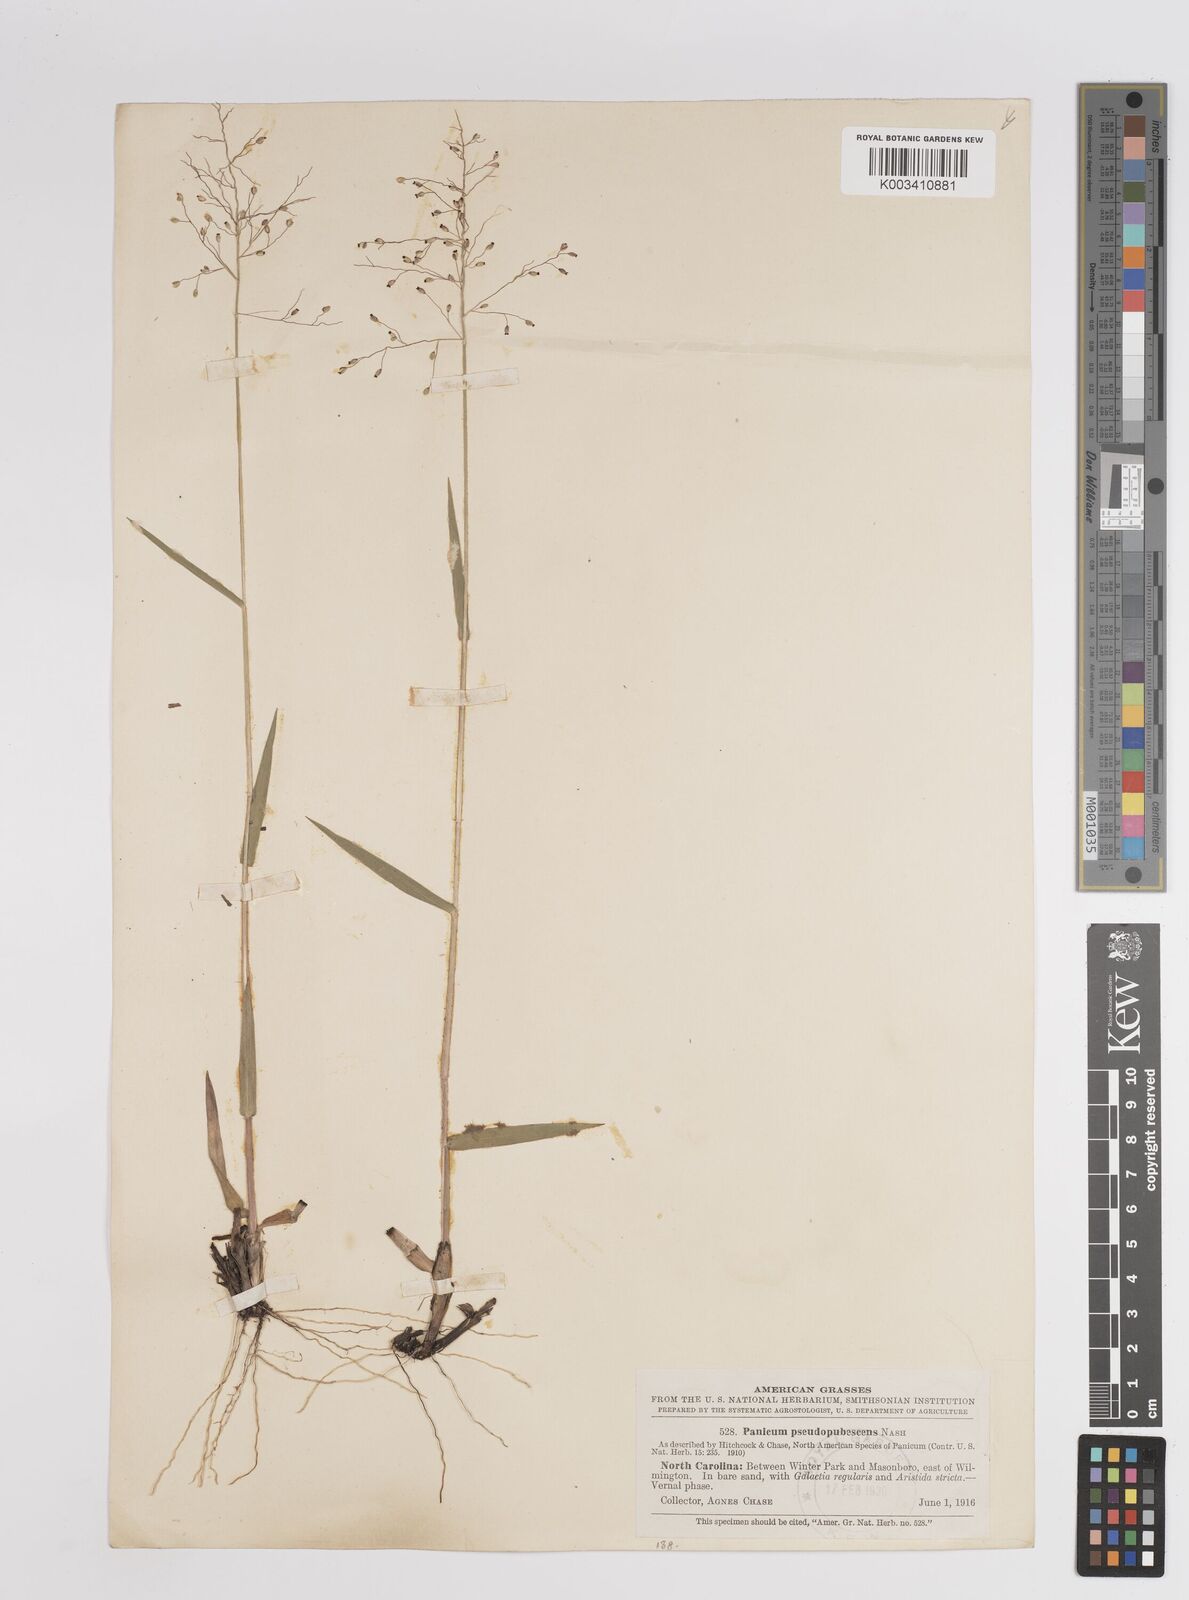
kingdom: Plantae
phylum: Tracheophyta
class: Liliopsida
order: Poales
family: Poaceae
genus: Dichanthelium
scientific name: Dichanthelium villosissimum
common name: White-haired panicgrass
